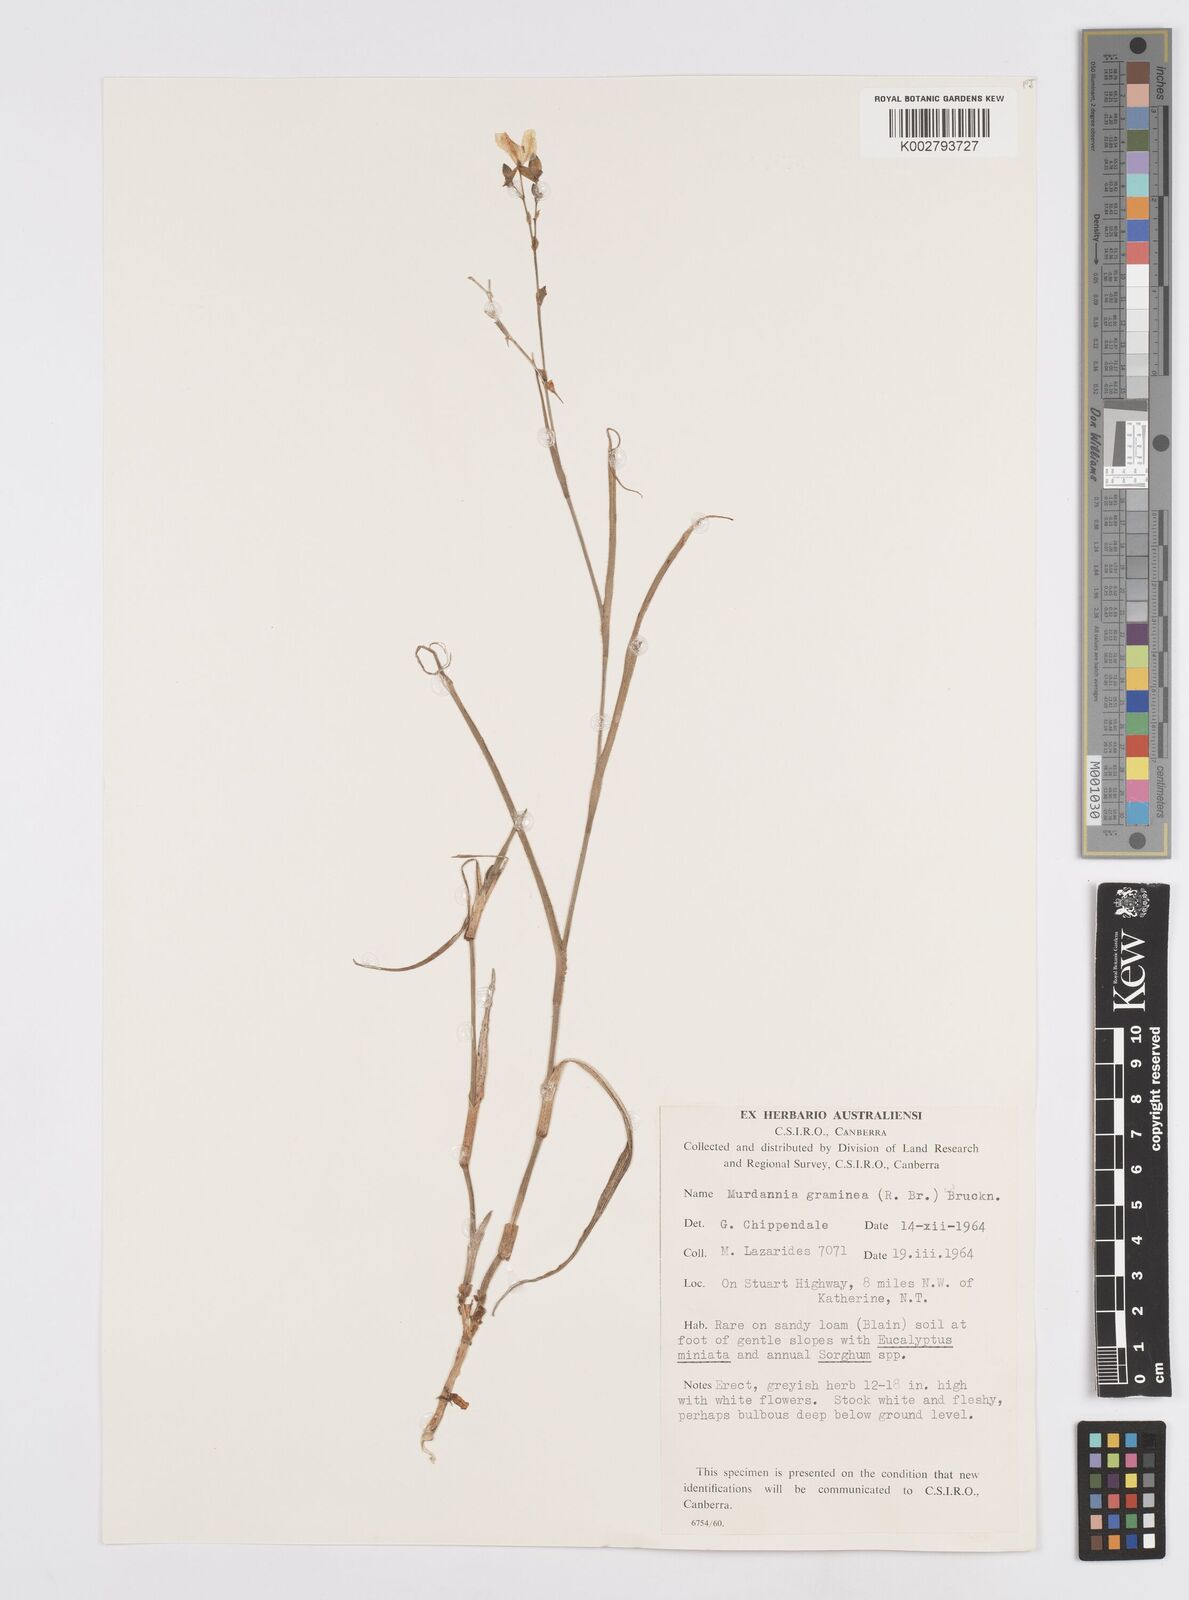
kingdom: Plantae
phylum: Tracheophyta
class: Liliopsida
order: Commelinales
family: Commelinaceae
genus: Murdannia
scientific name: Murdannia graminea
